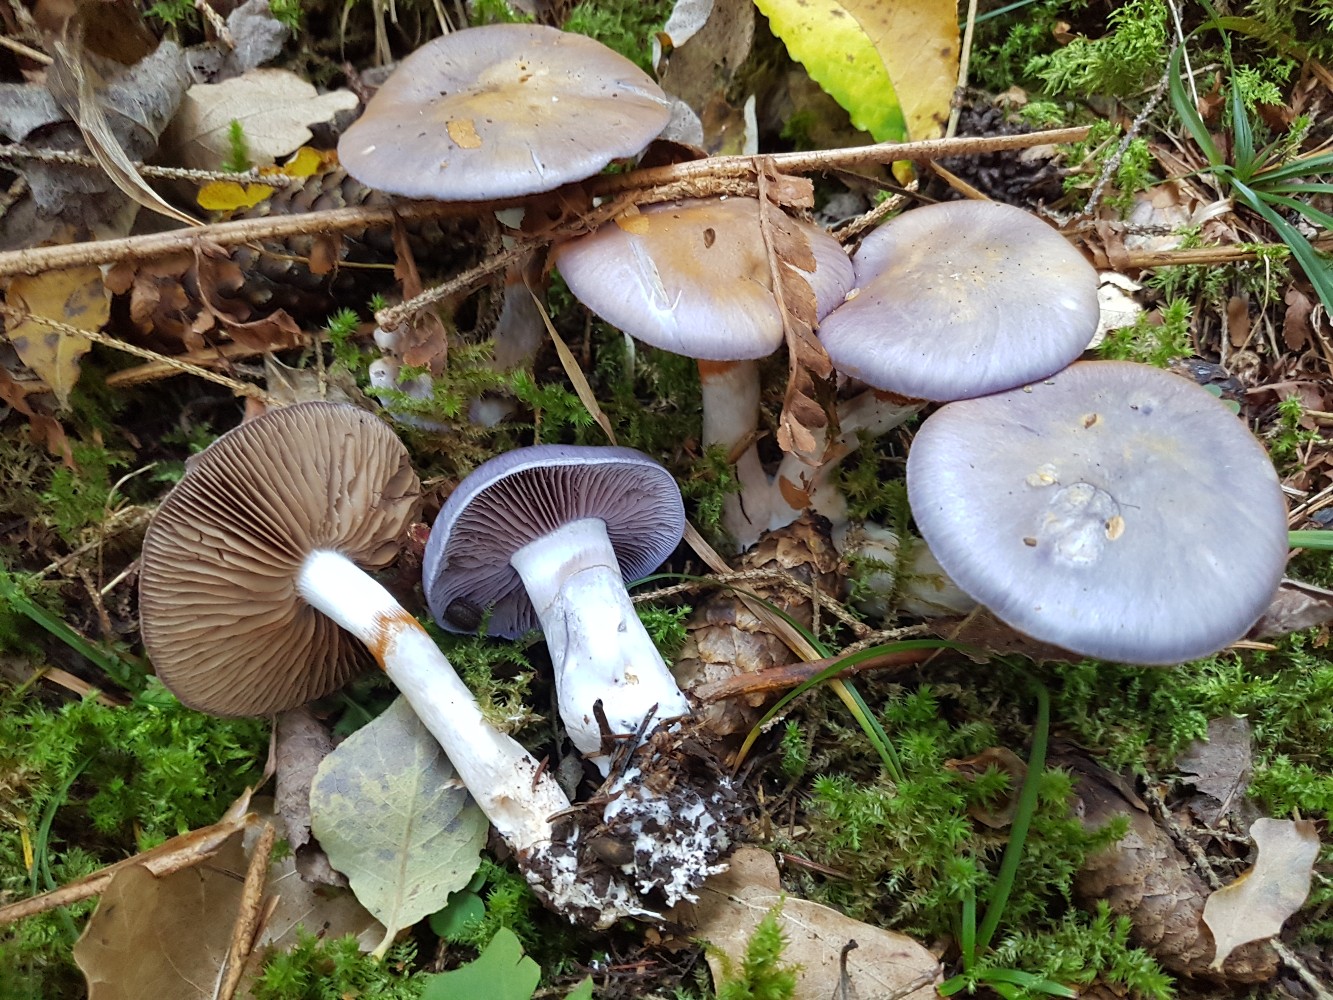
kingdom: Fungi
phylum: Basidiomycota
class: Agaricomycetes
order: Agaricales
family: Cortinariaceae
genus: Cortinarius
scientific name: Cortinarius salor
